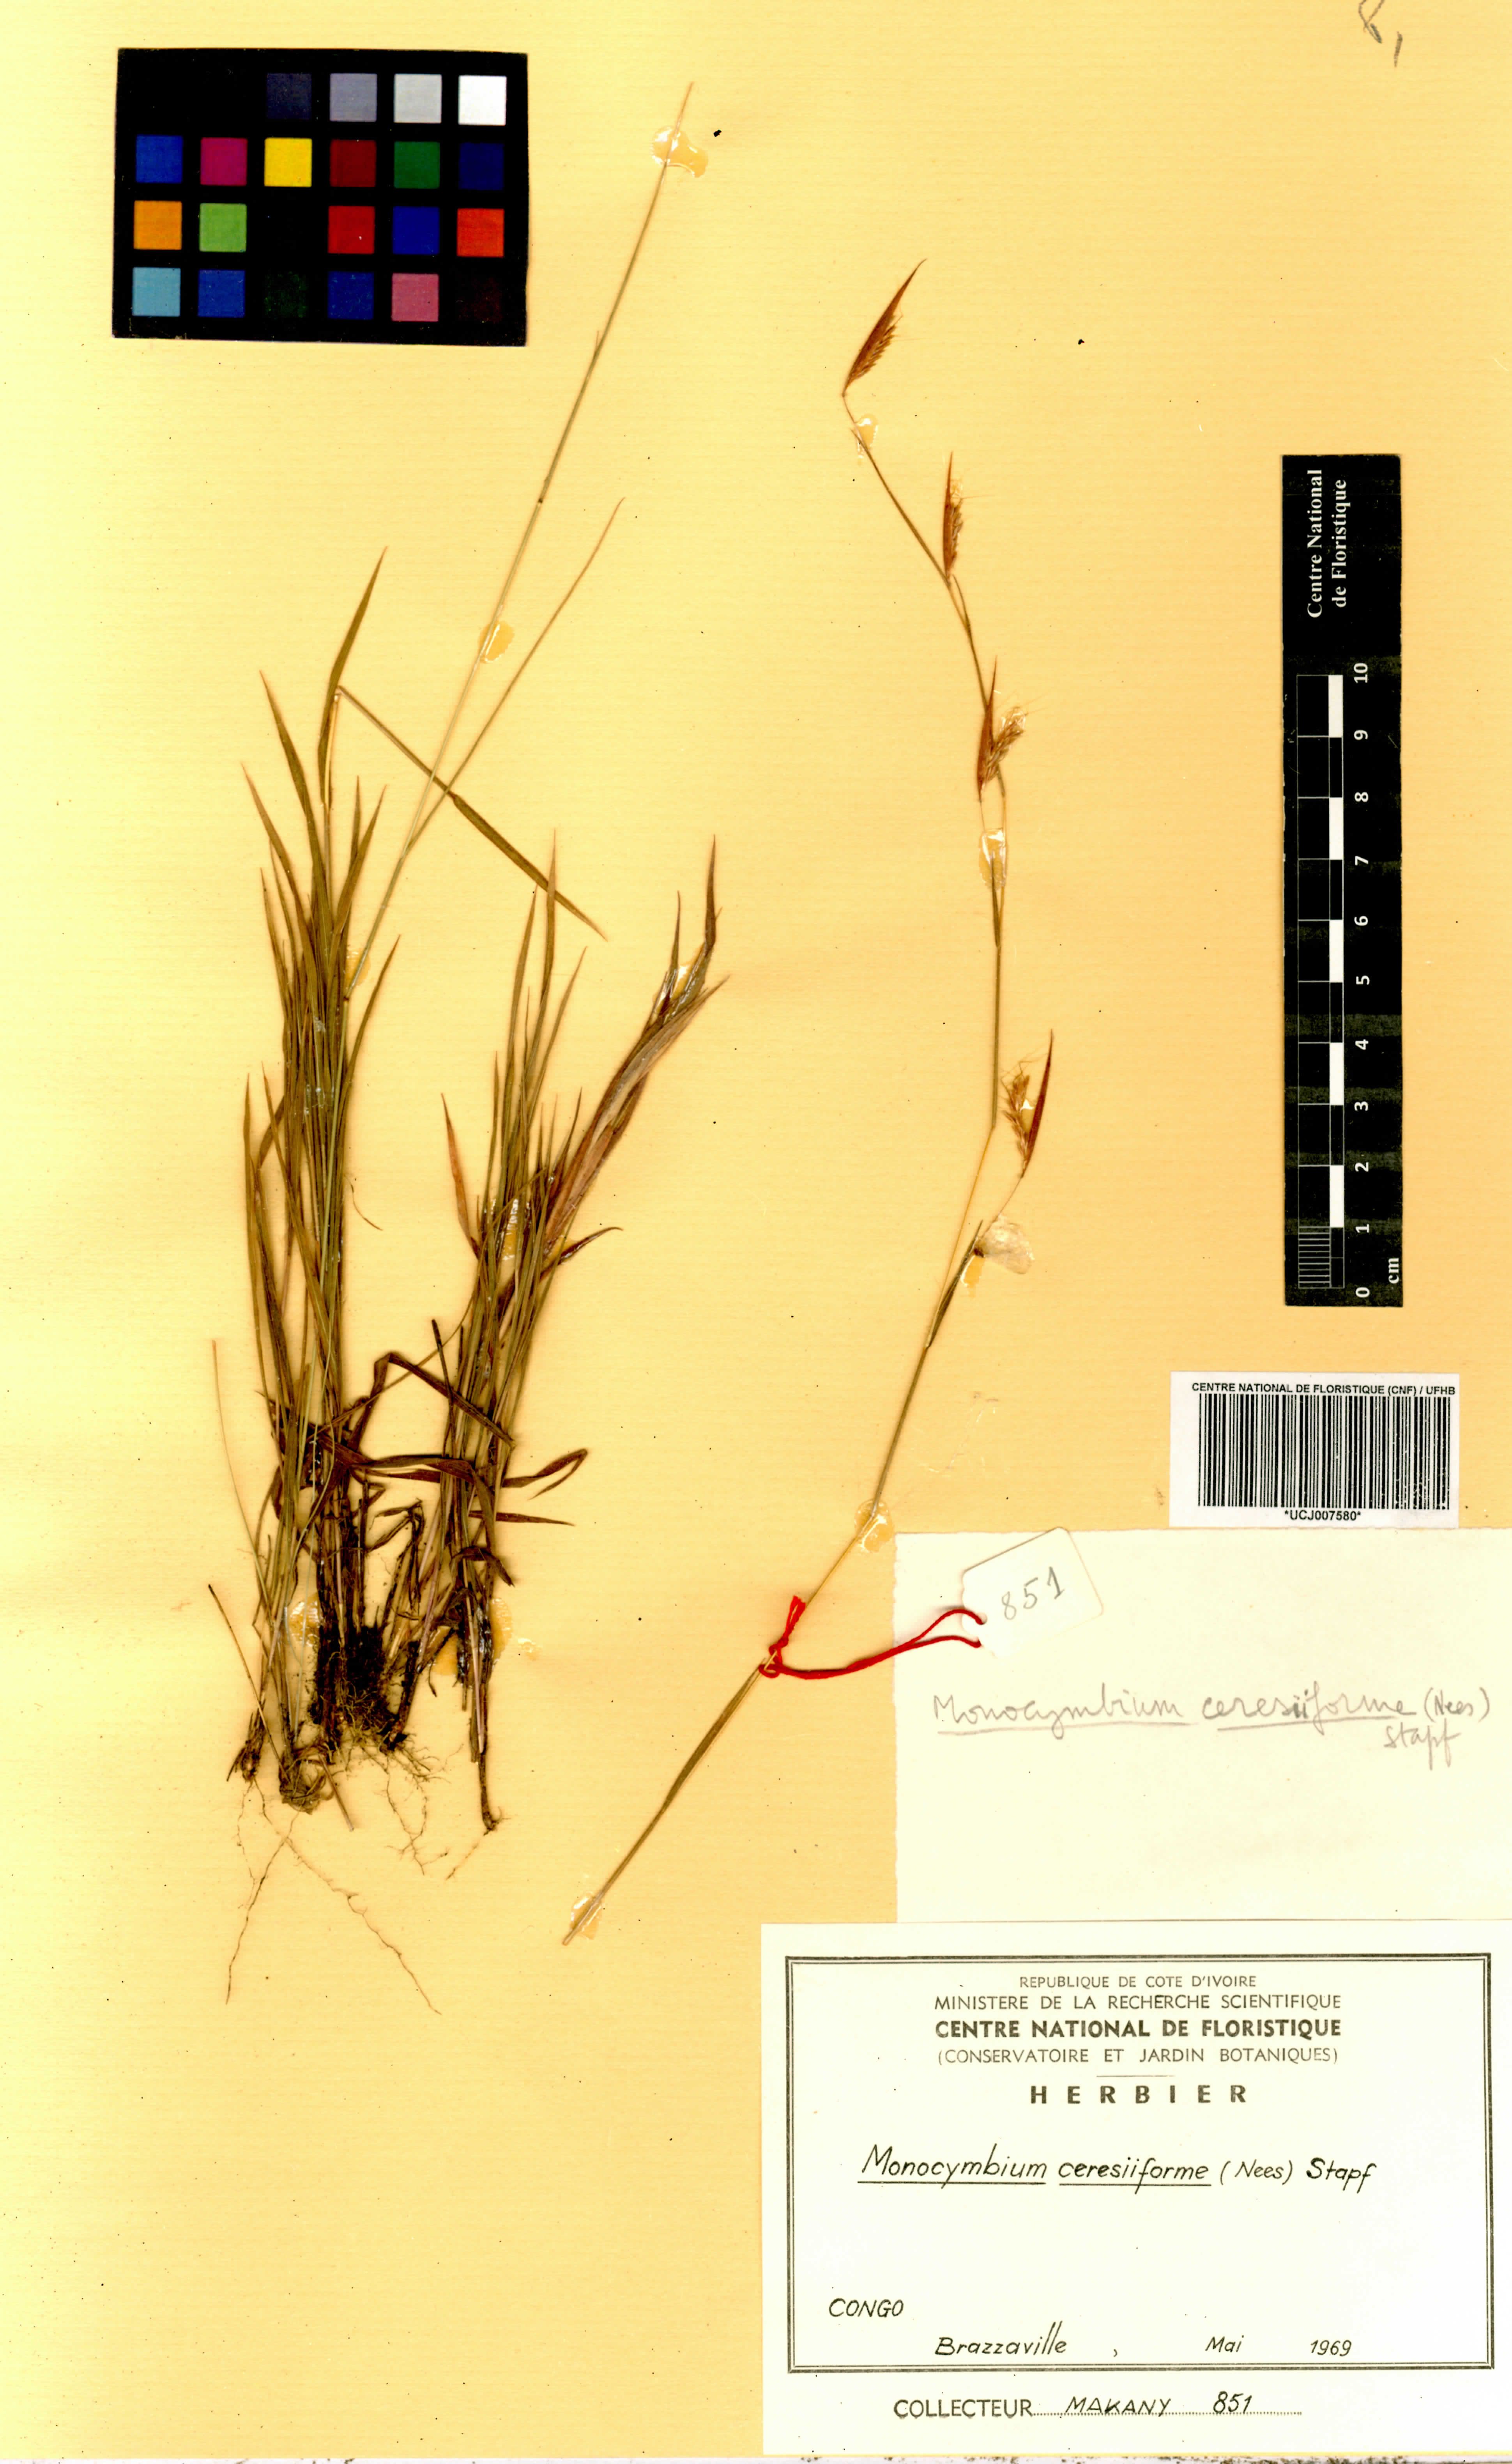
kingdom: Plantae
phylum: Tracheophyta
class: Liliopsida
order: Poales
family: Poaceae
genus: Monocymbium
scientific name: Monocymbium ceresiiforme
